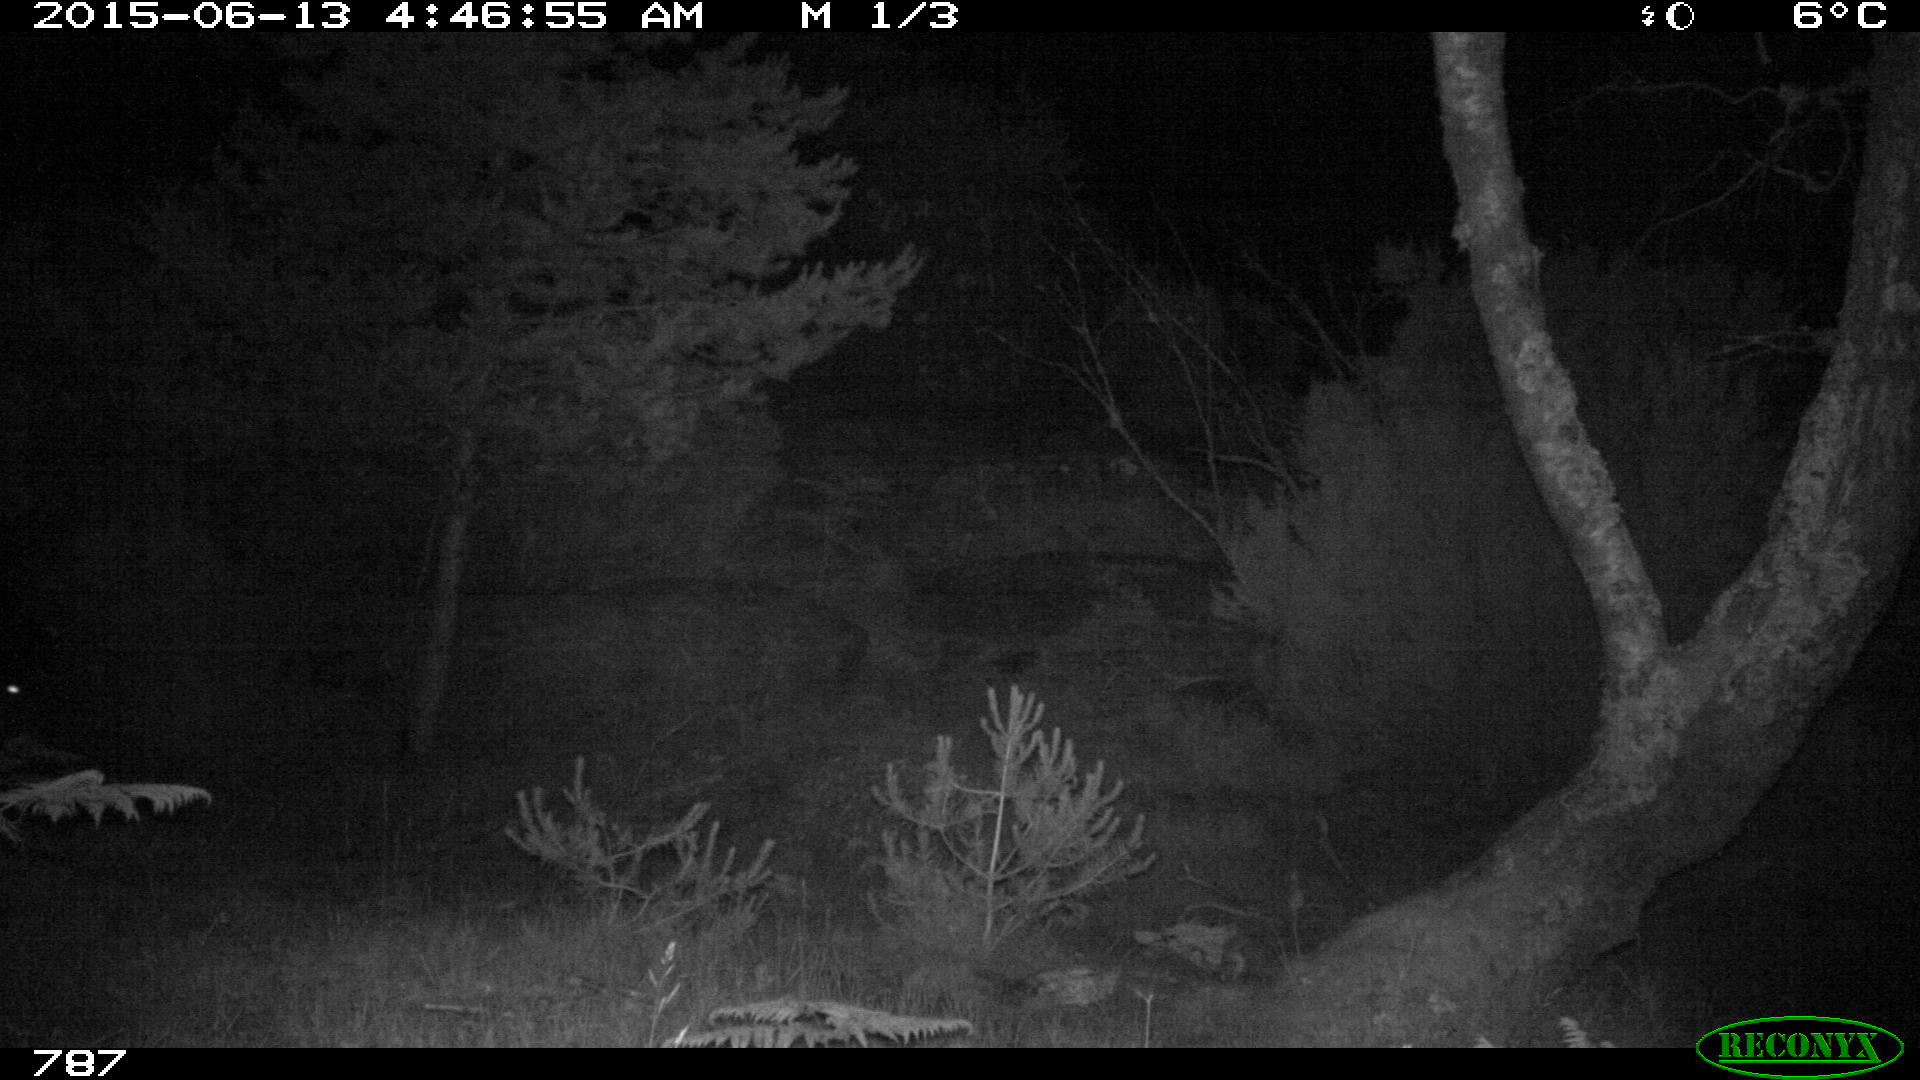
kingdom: Animalia
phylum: Chordata
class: Mammalia
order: Perissodactyla
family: Equidae
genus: Equus
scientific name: Equus caballus
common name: Horse
